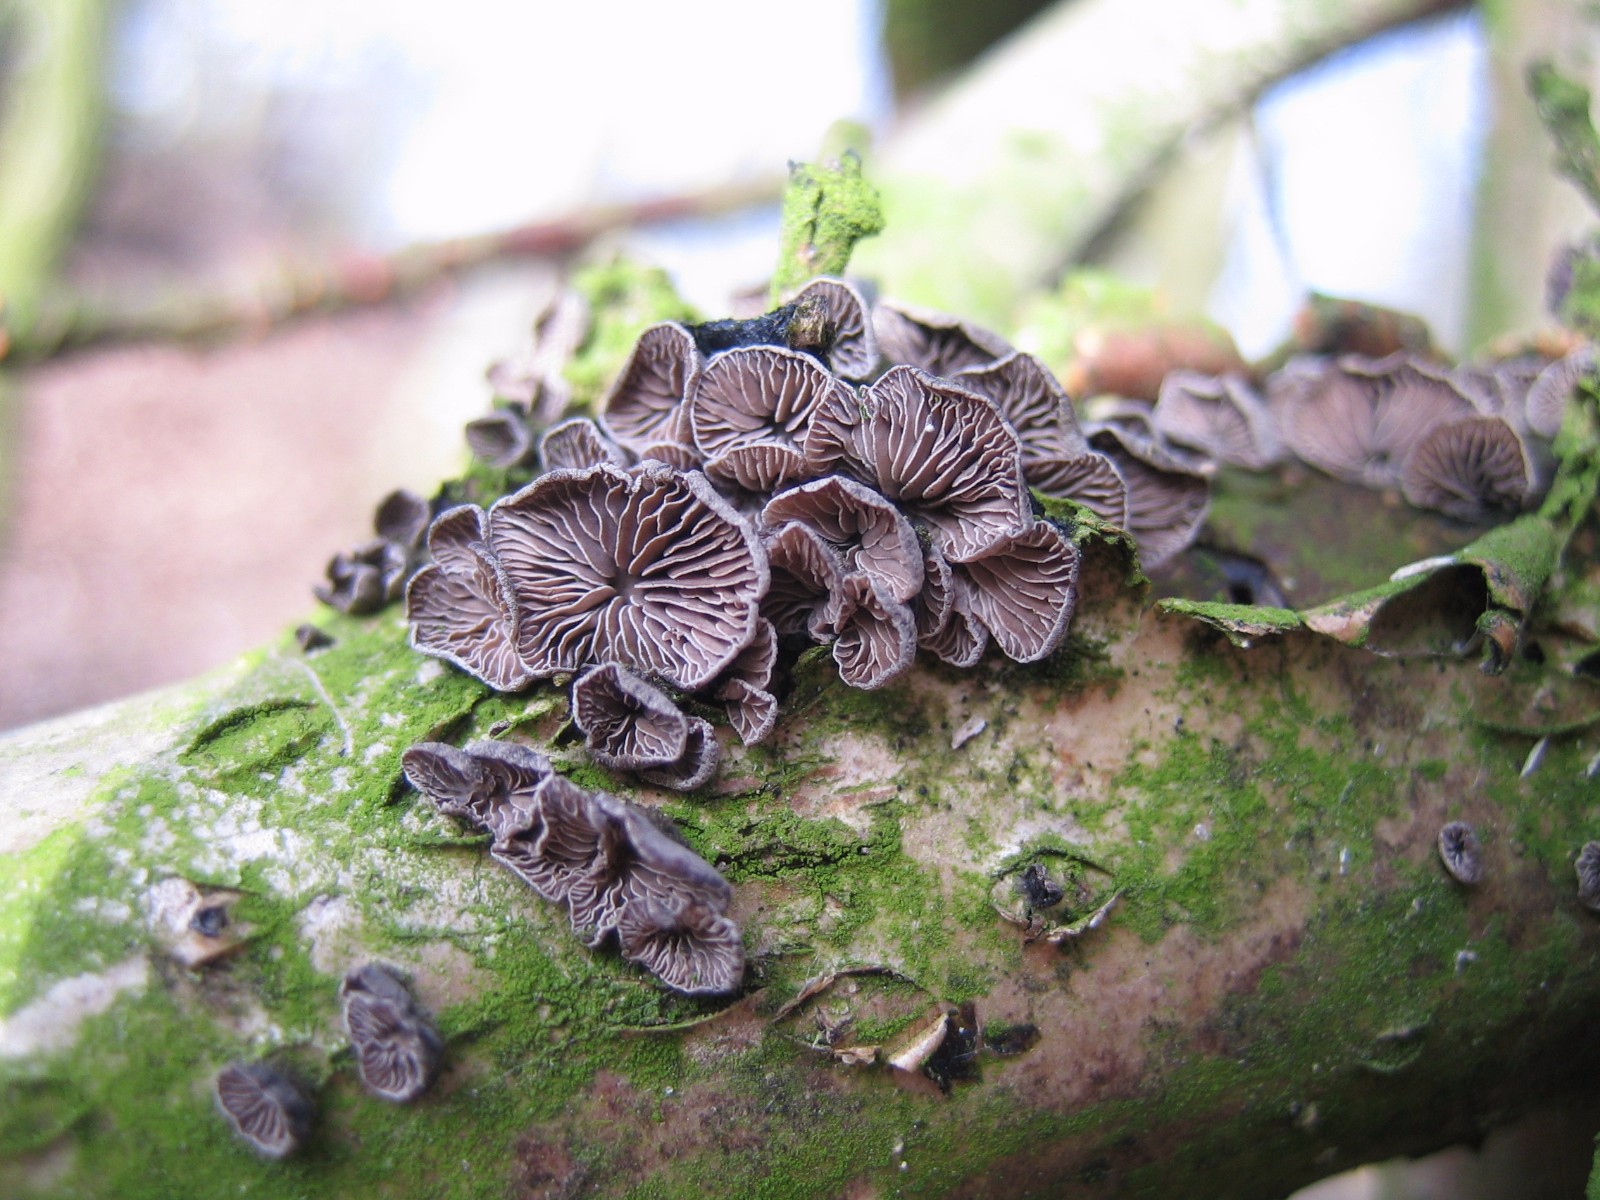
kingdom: Fungi
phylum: Basidiomycota
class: Agaricomycetes
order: Agaricales
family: Pleurotaceae
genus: Resupinatus
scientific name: Resupinatus trichotis
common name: mørkfiltet barkhat
